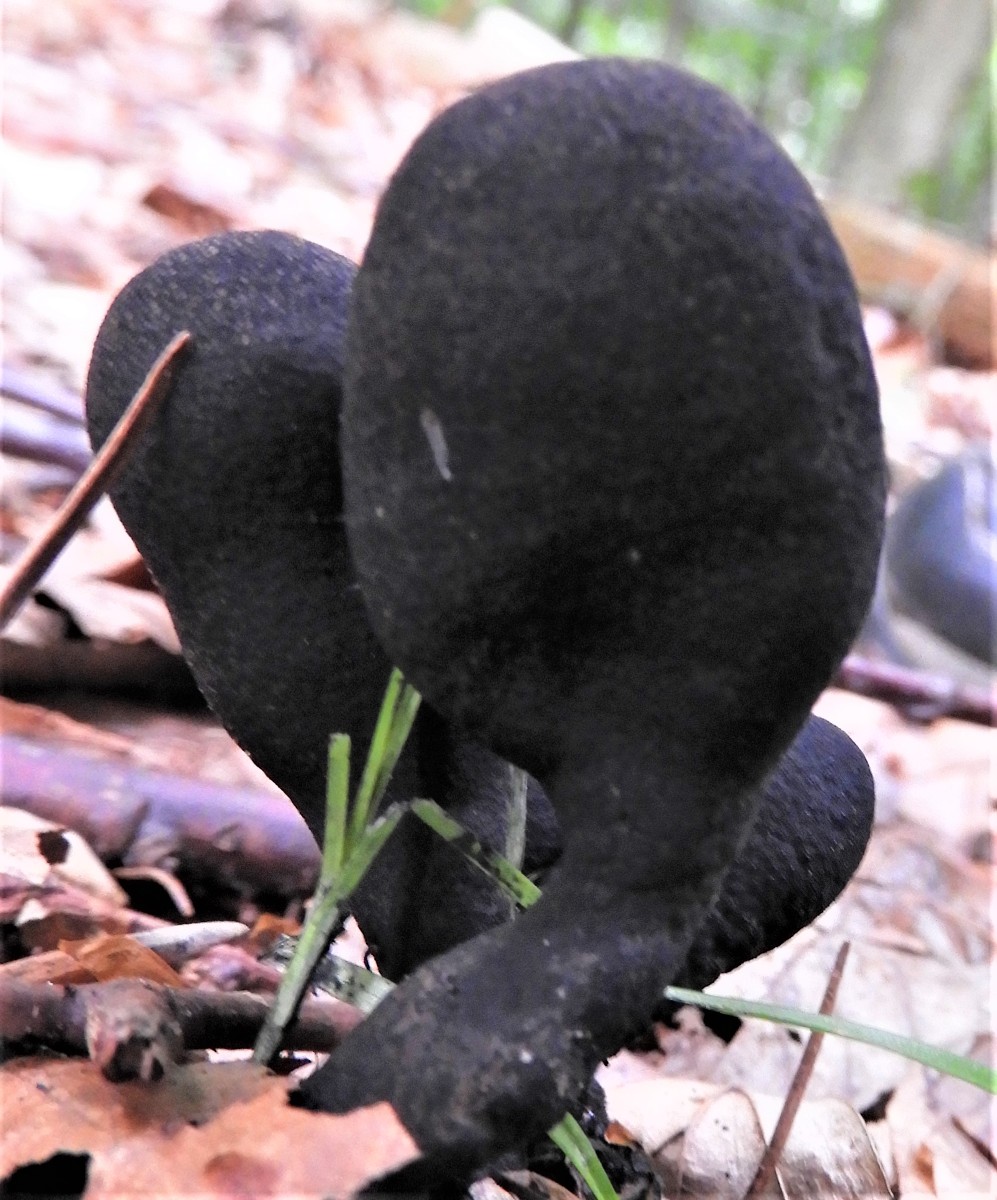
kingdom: Fungi
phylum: Ascomycota
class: Sordariomycetes
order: Xylariales
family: Xylariaceae
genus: Xylaria
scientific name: Xylaria polymorpha
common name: kølle-stødsvamp
